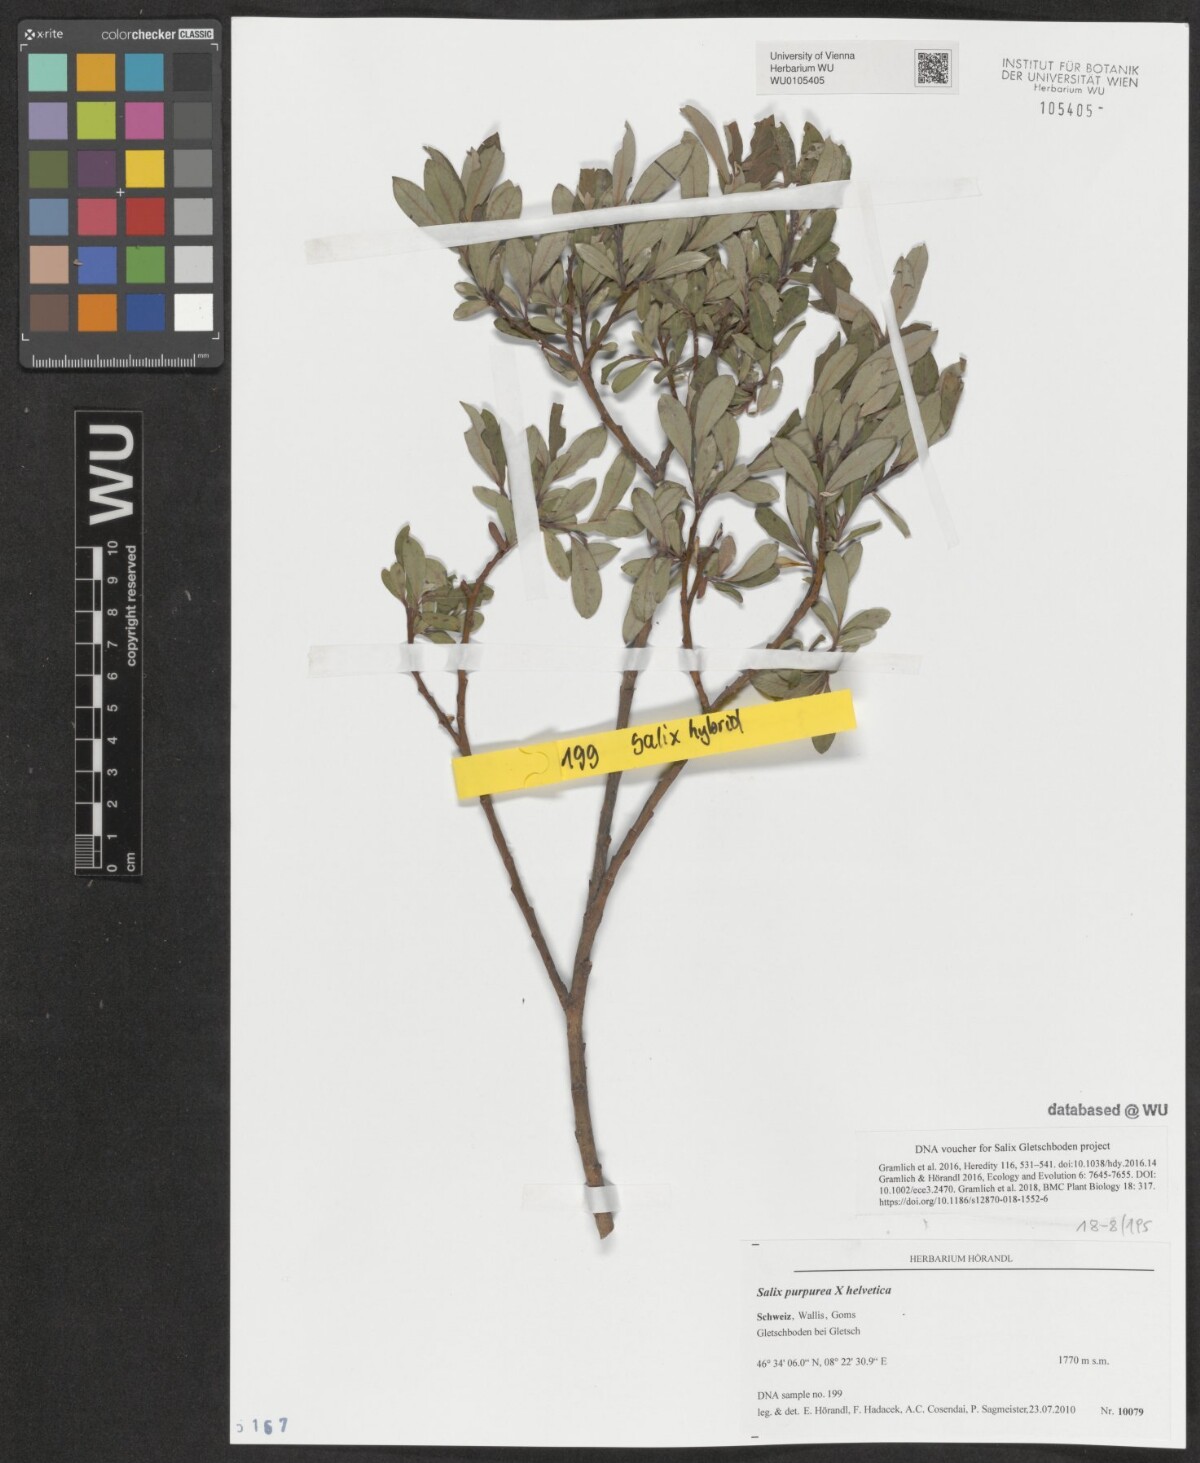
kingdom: Plantae
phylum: Tracheophyta
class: Magnoliopsida
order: Malpighiales
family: Salicaceae
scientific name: Salicaceae
